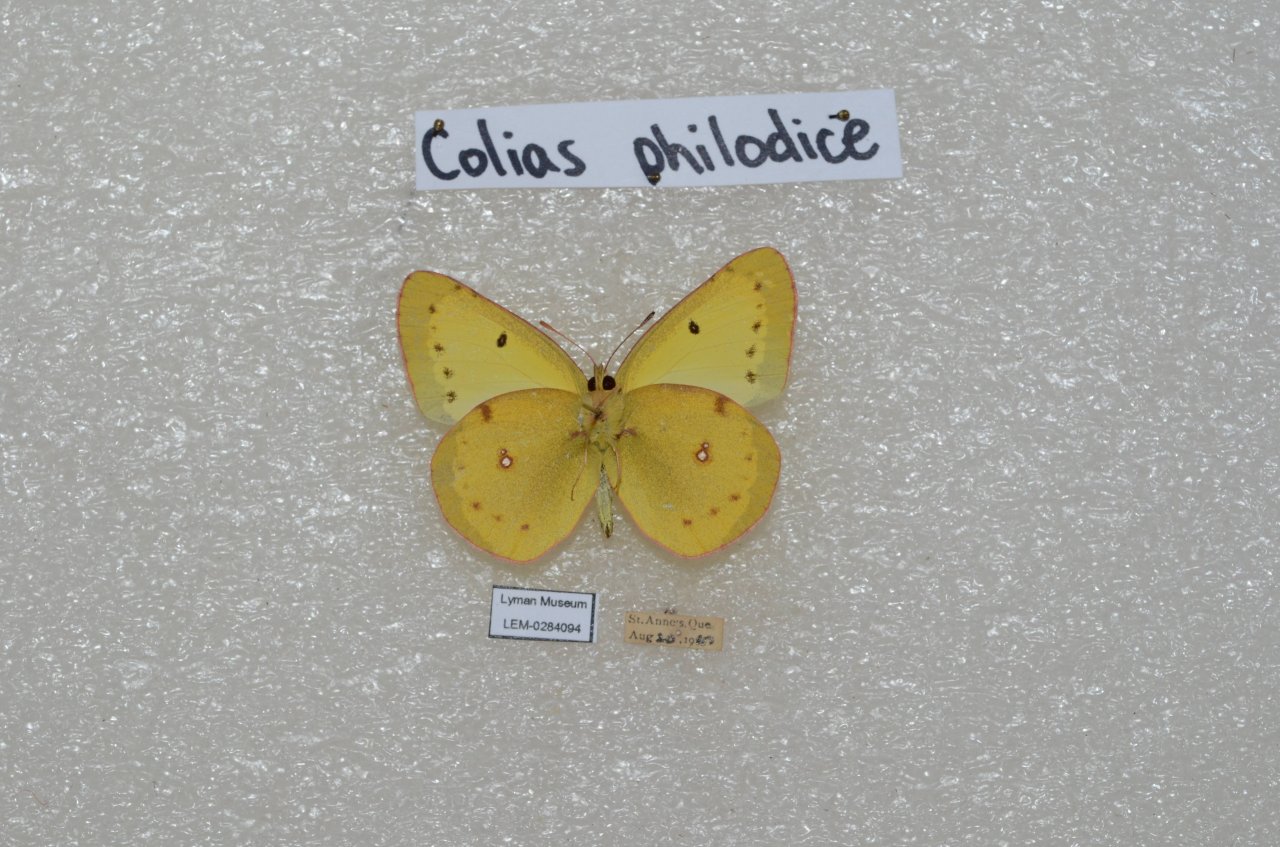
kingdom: Animalia
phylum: Arthropoda
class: Insecta
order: Lepidoptera
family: Pieridae
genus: Colias
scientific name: Colias philodice
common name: Clouded Sulphur
